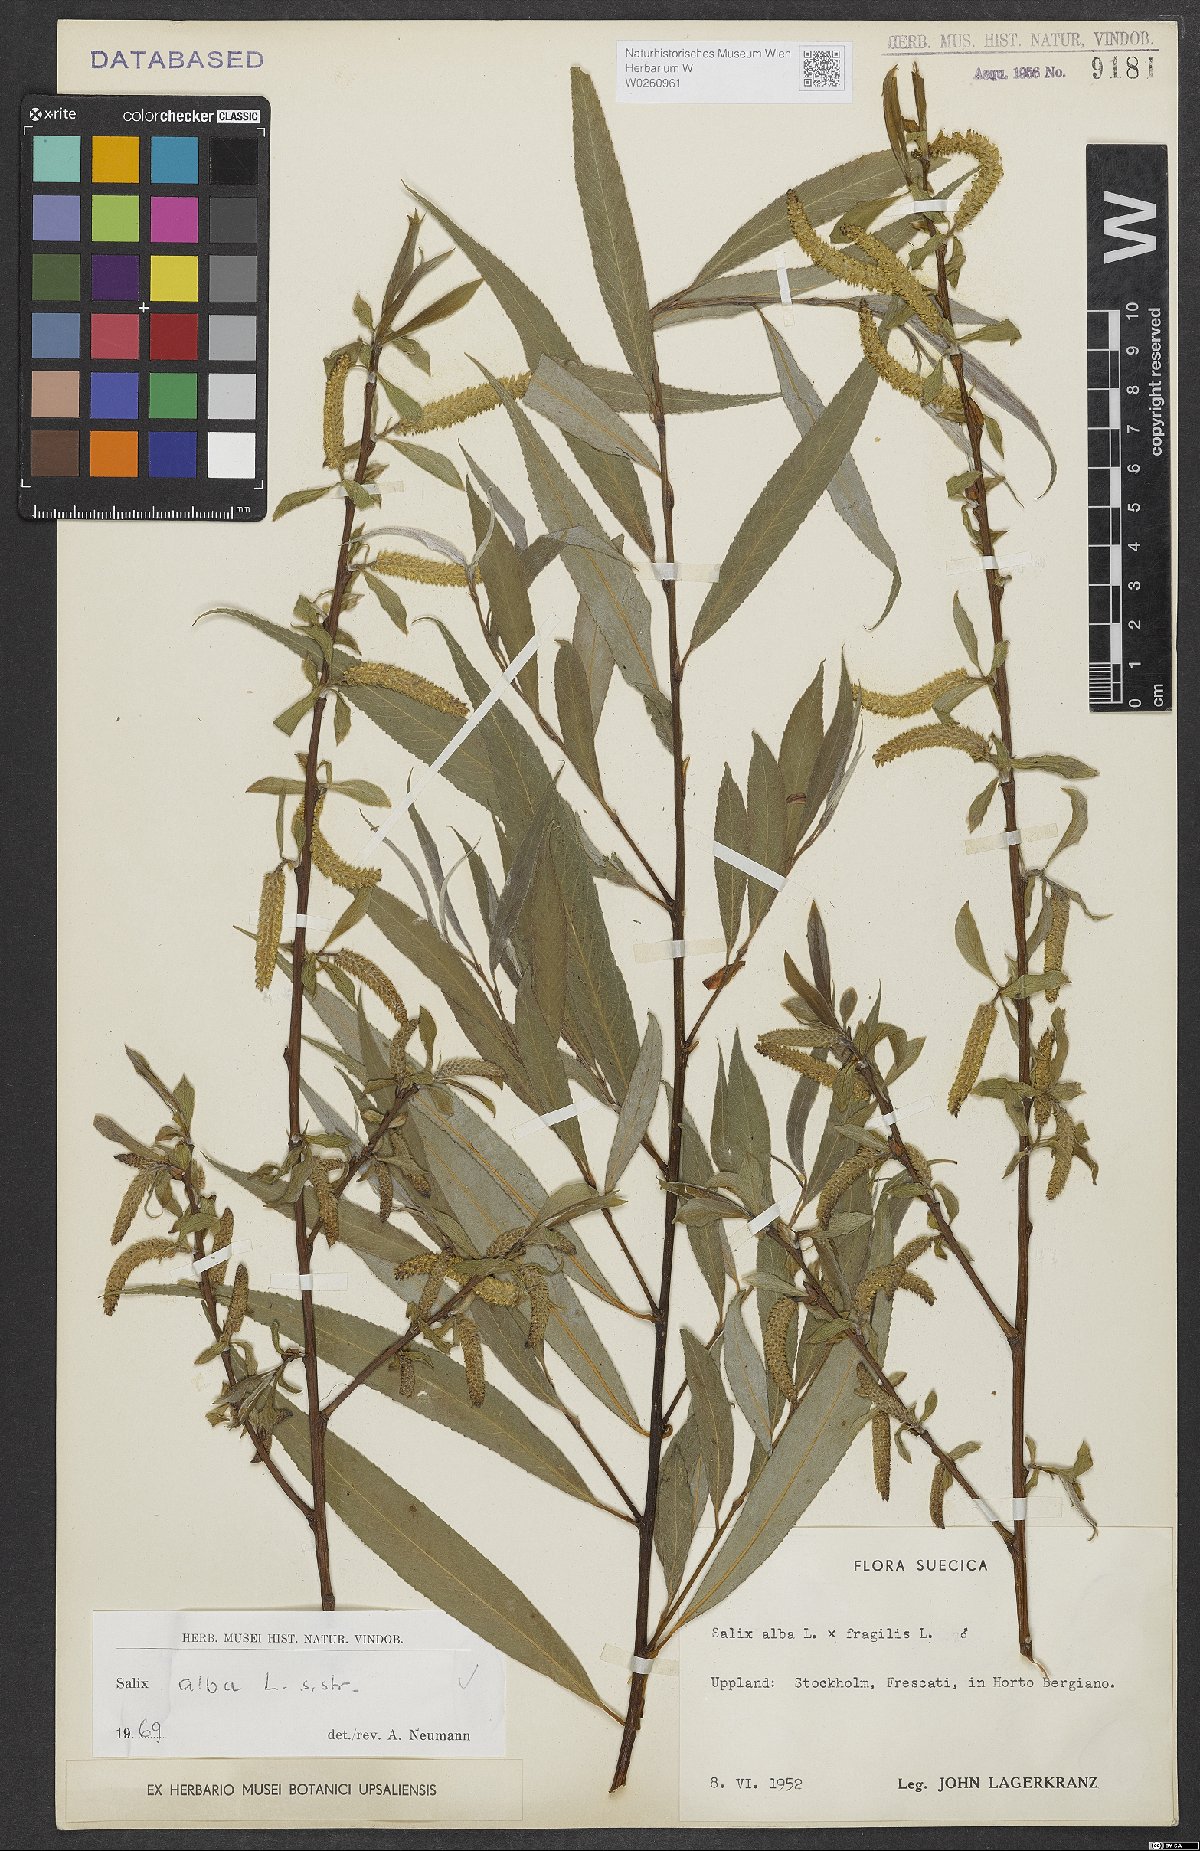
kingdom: Plantae
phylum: Tracheophyta
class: Magnoliopsida
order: Malpighiales
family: Salicaceae
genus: Salix
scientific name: Salix alba
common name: White willow
